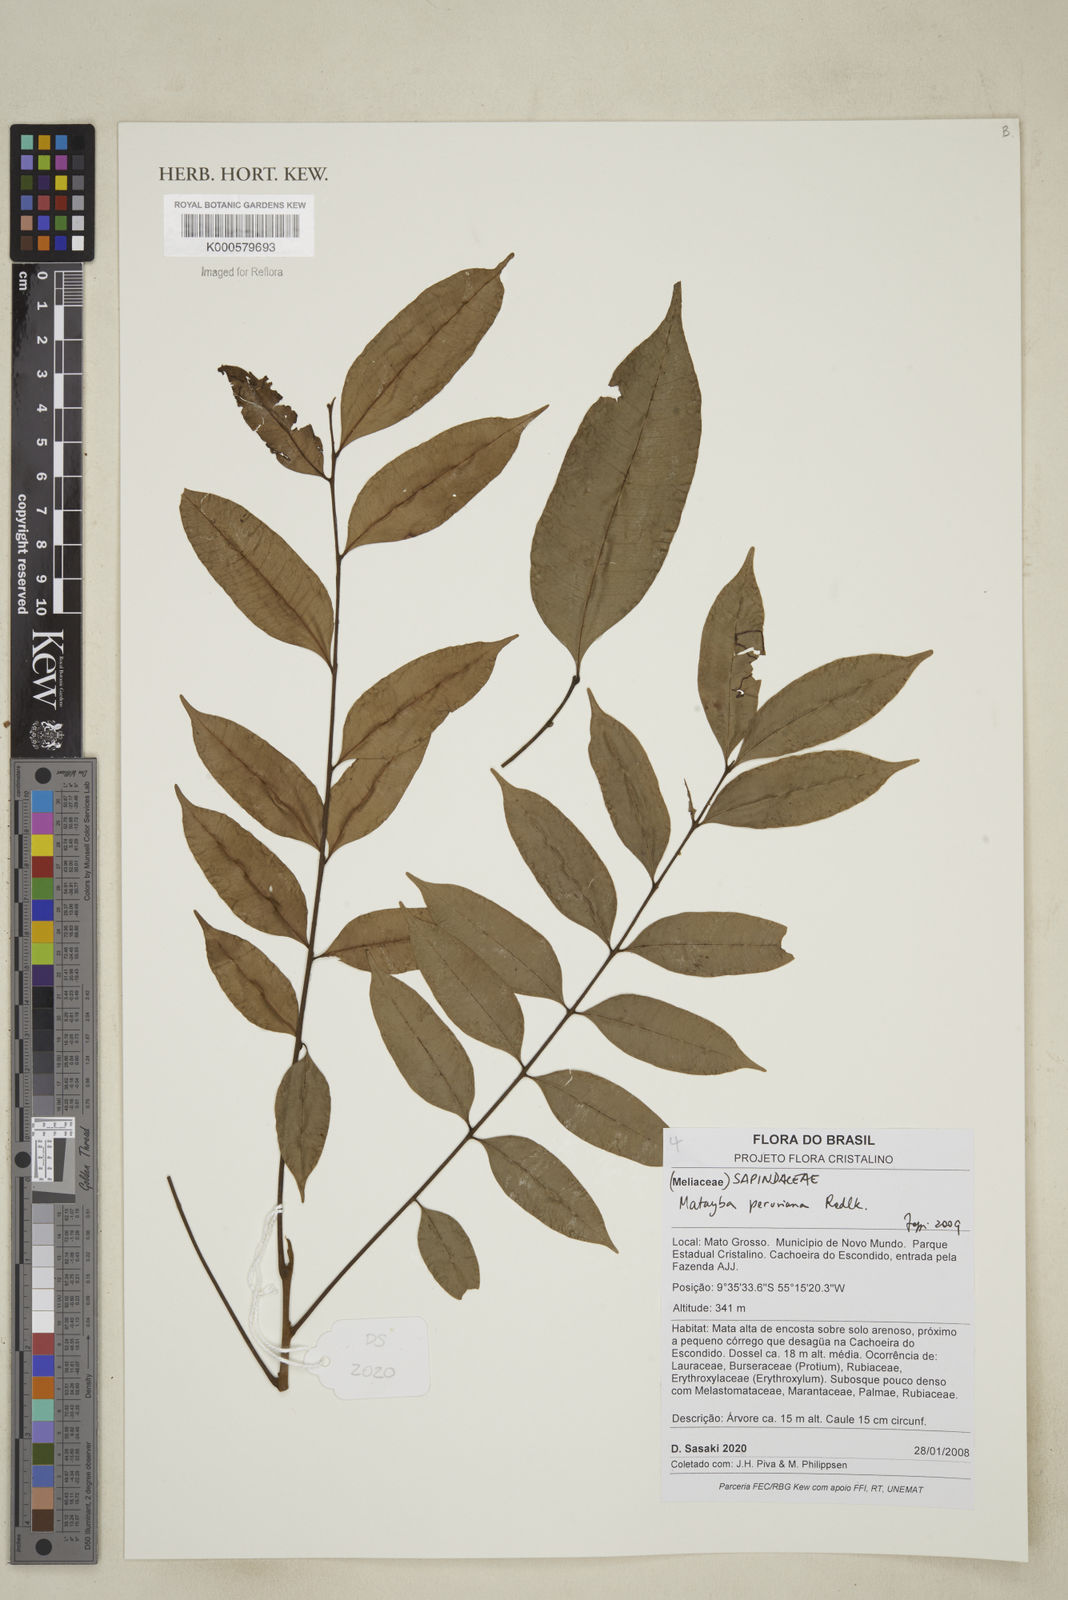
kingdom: Plantae
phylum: Tracheophyta
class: Magnoliopsida
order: Sapindales
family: Sapindaceae
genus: Matayba
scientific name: Matayba peruviana
